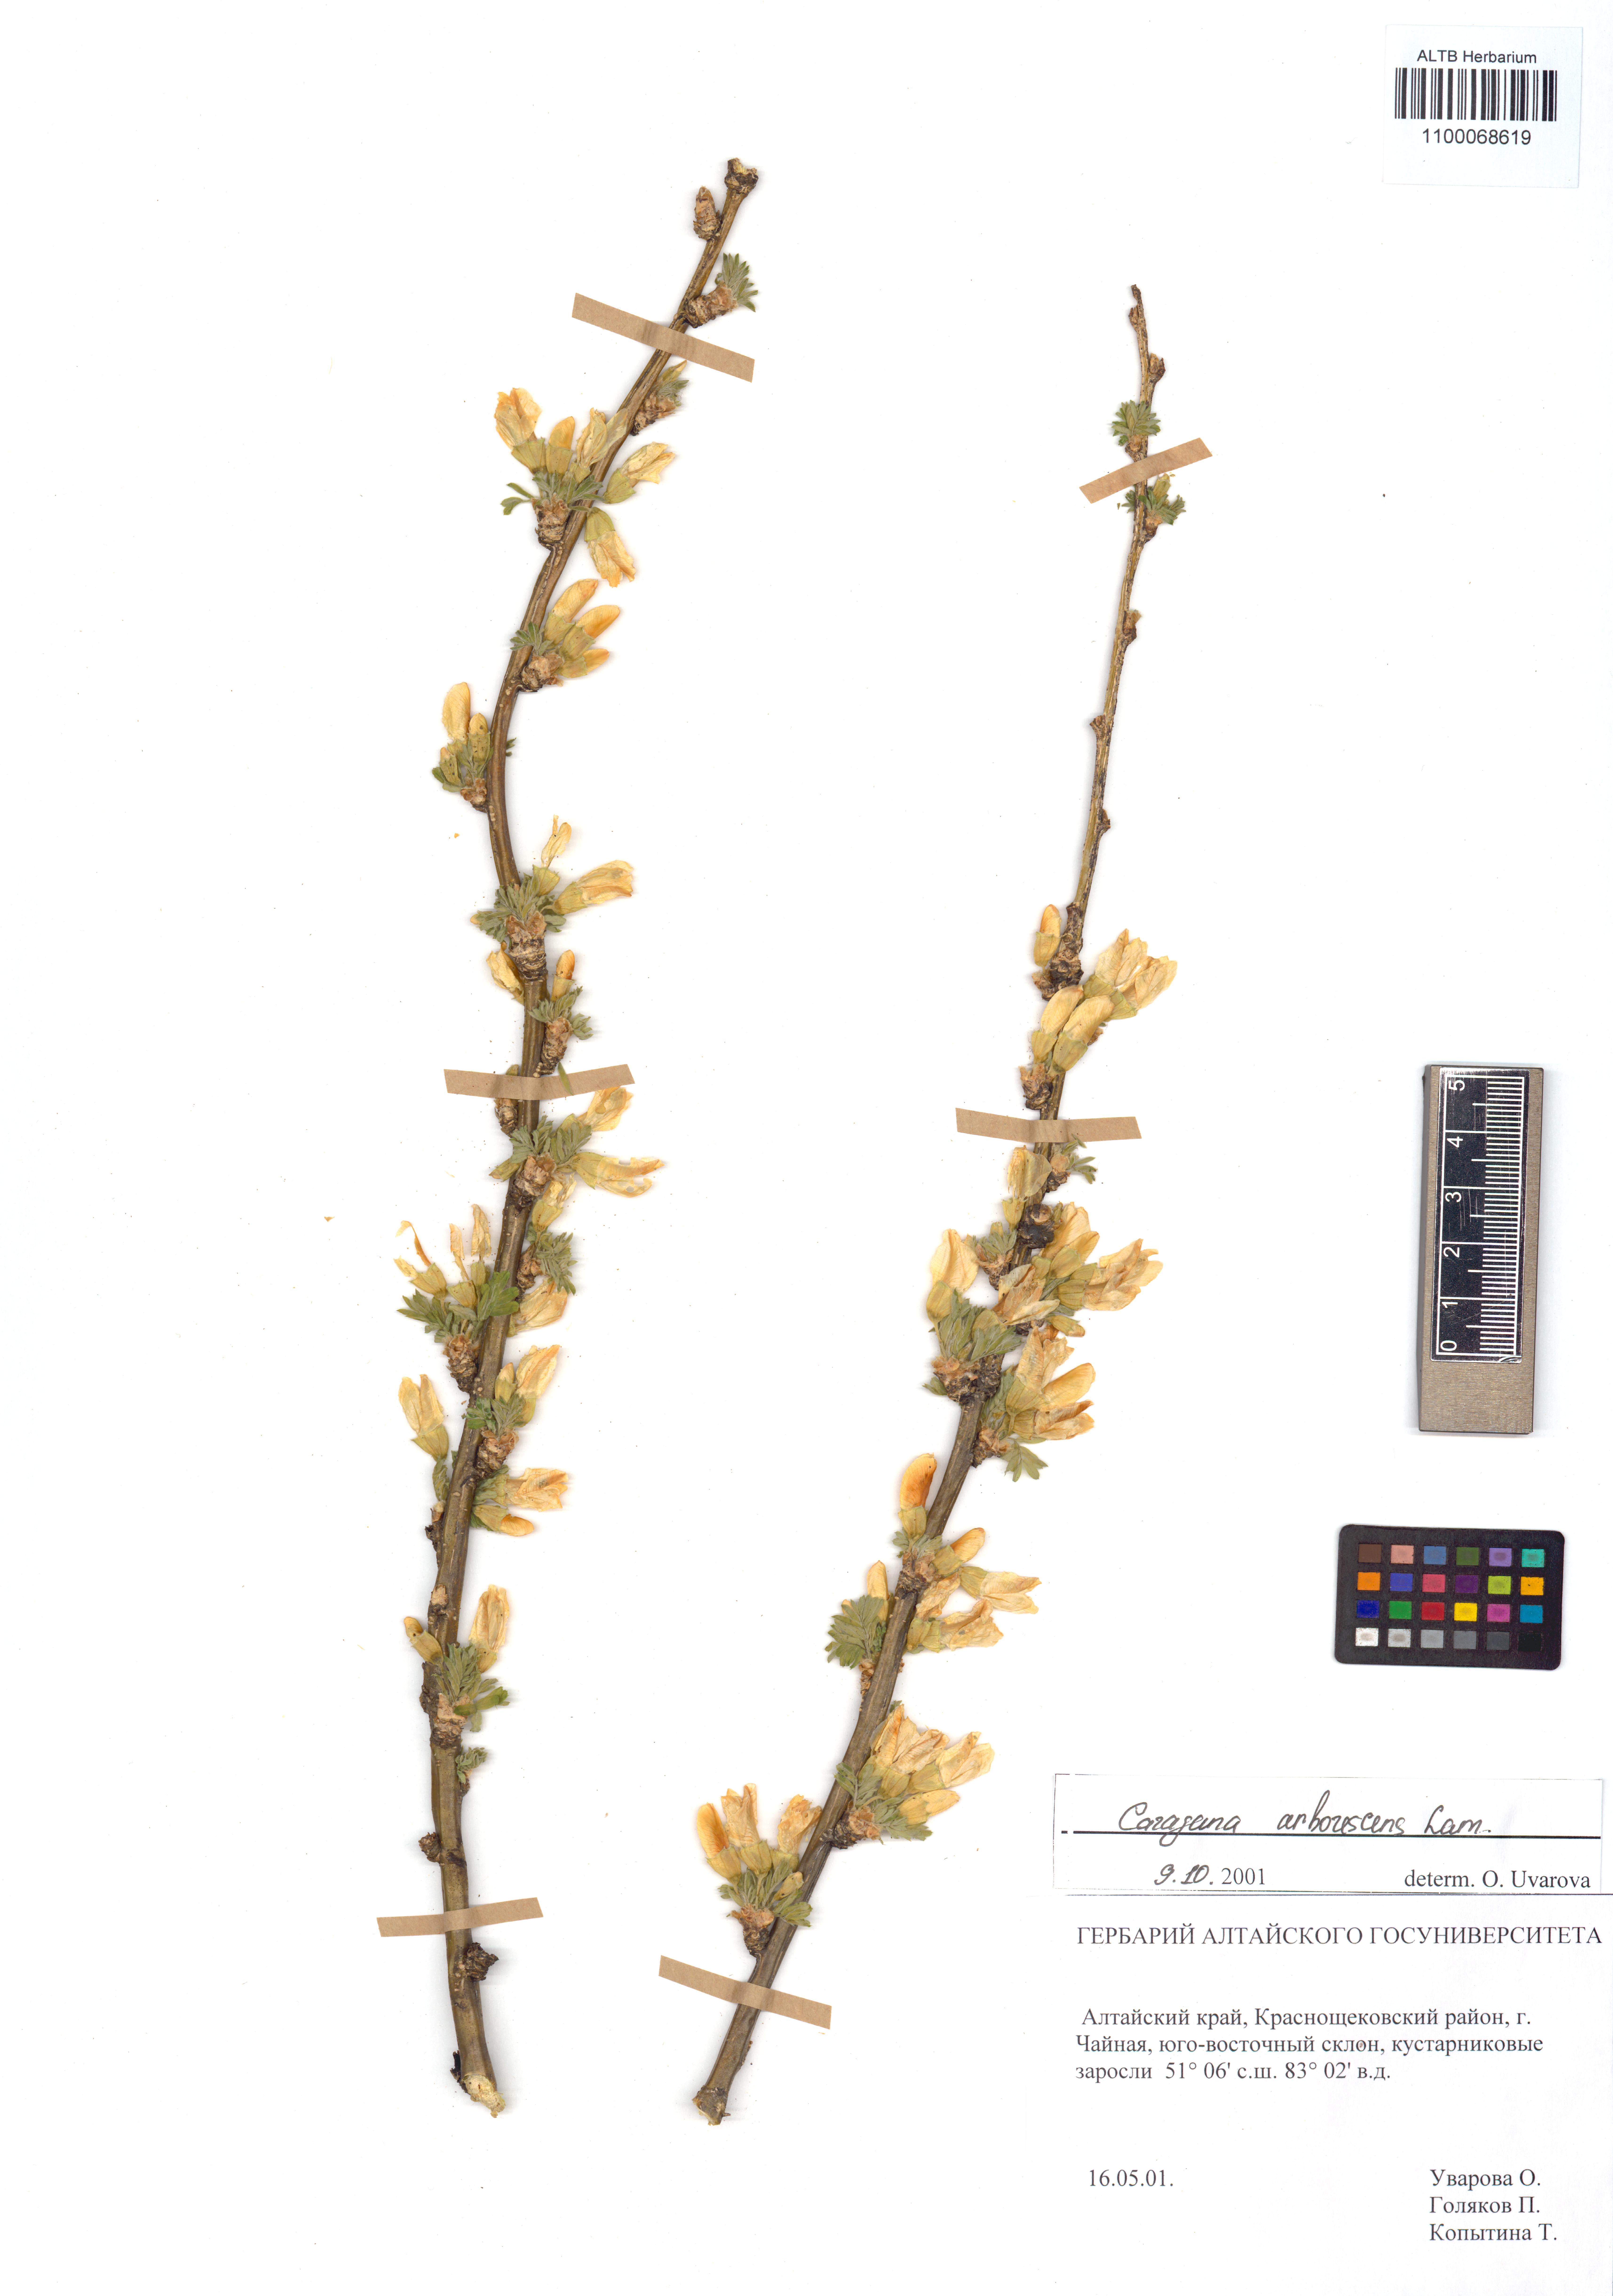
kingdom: Plantae
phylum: Tracheophyta
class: Magnoliopsida
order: Fabales
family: Fabaceae
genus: Caragana
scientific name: Caragana arborescens
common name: Siberian peashrub
